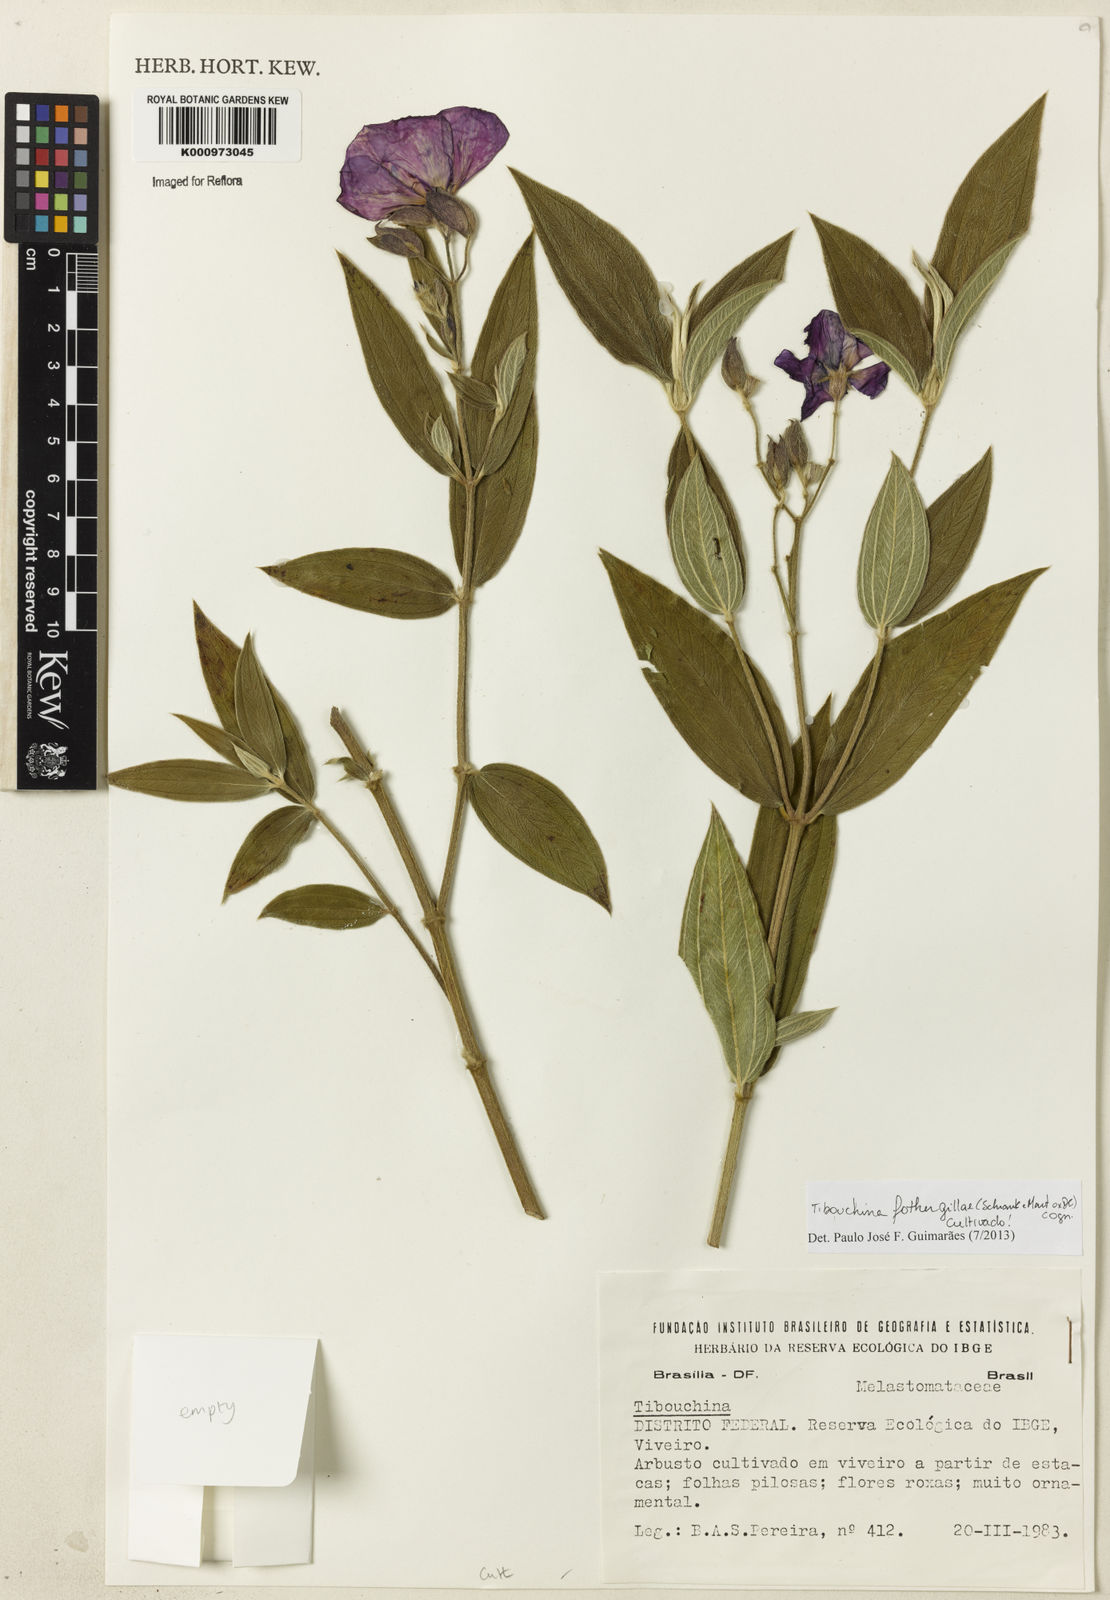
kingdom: Plantae
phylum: Tracheophyta
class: Magnoliopsida
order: Myrtales
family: Melastomataceae
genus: Pleroma
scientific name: Pleroma fothergillae
